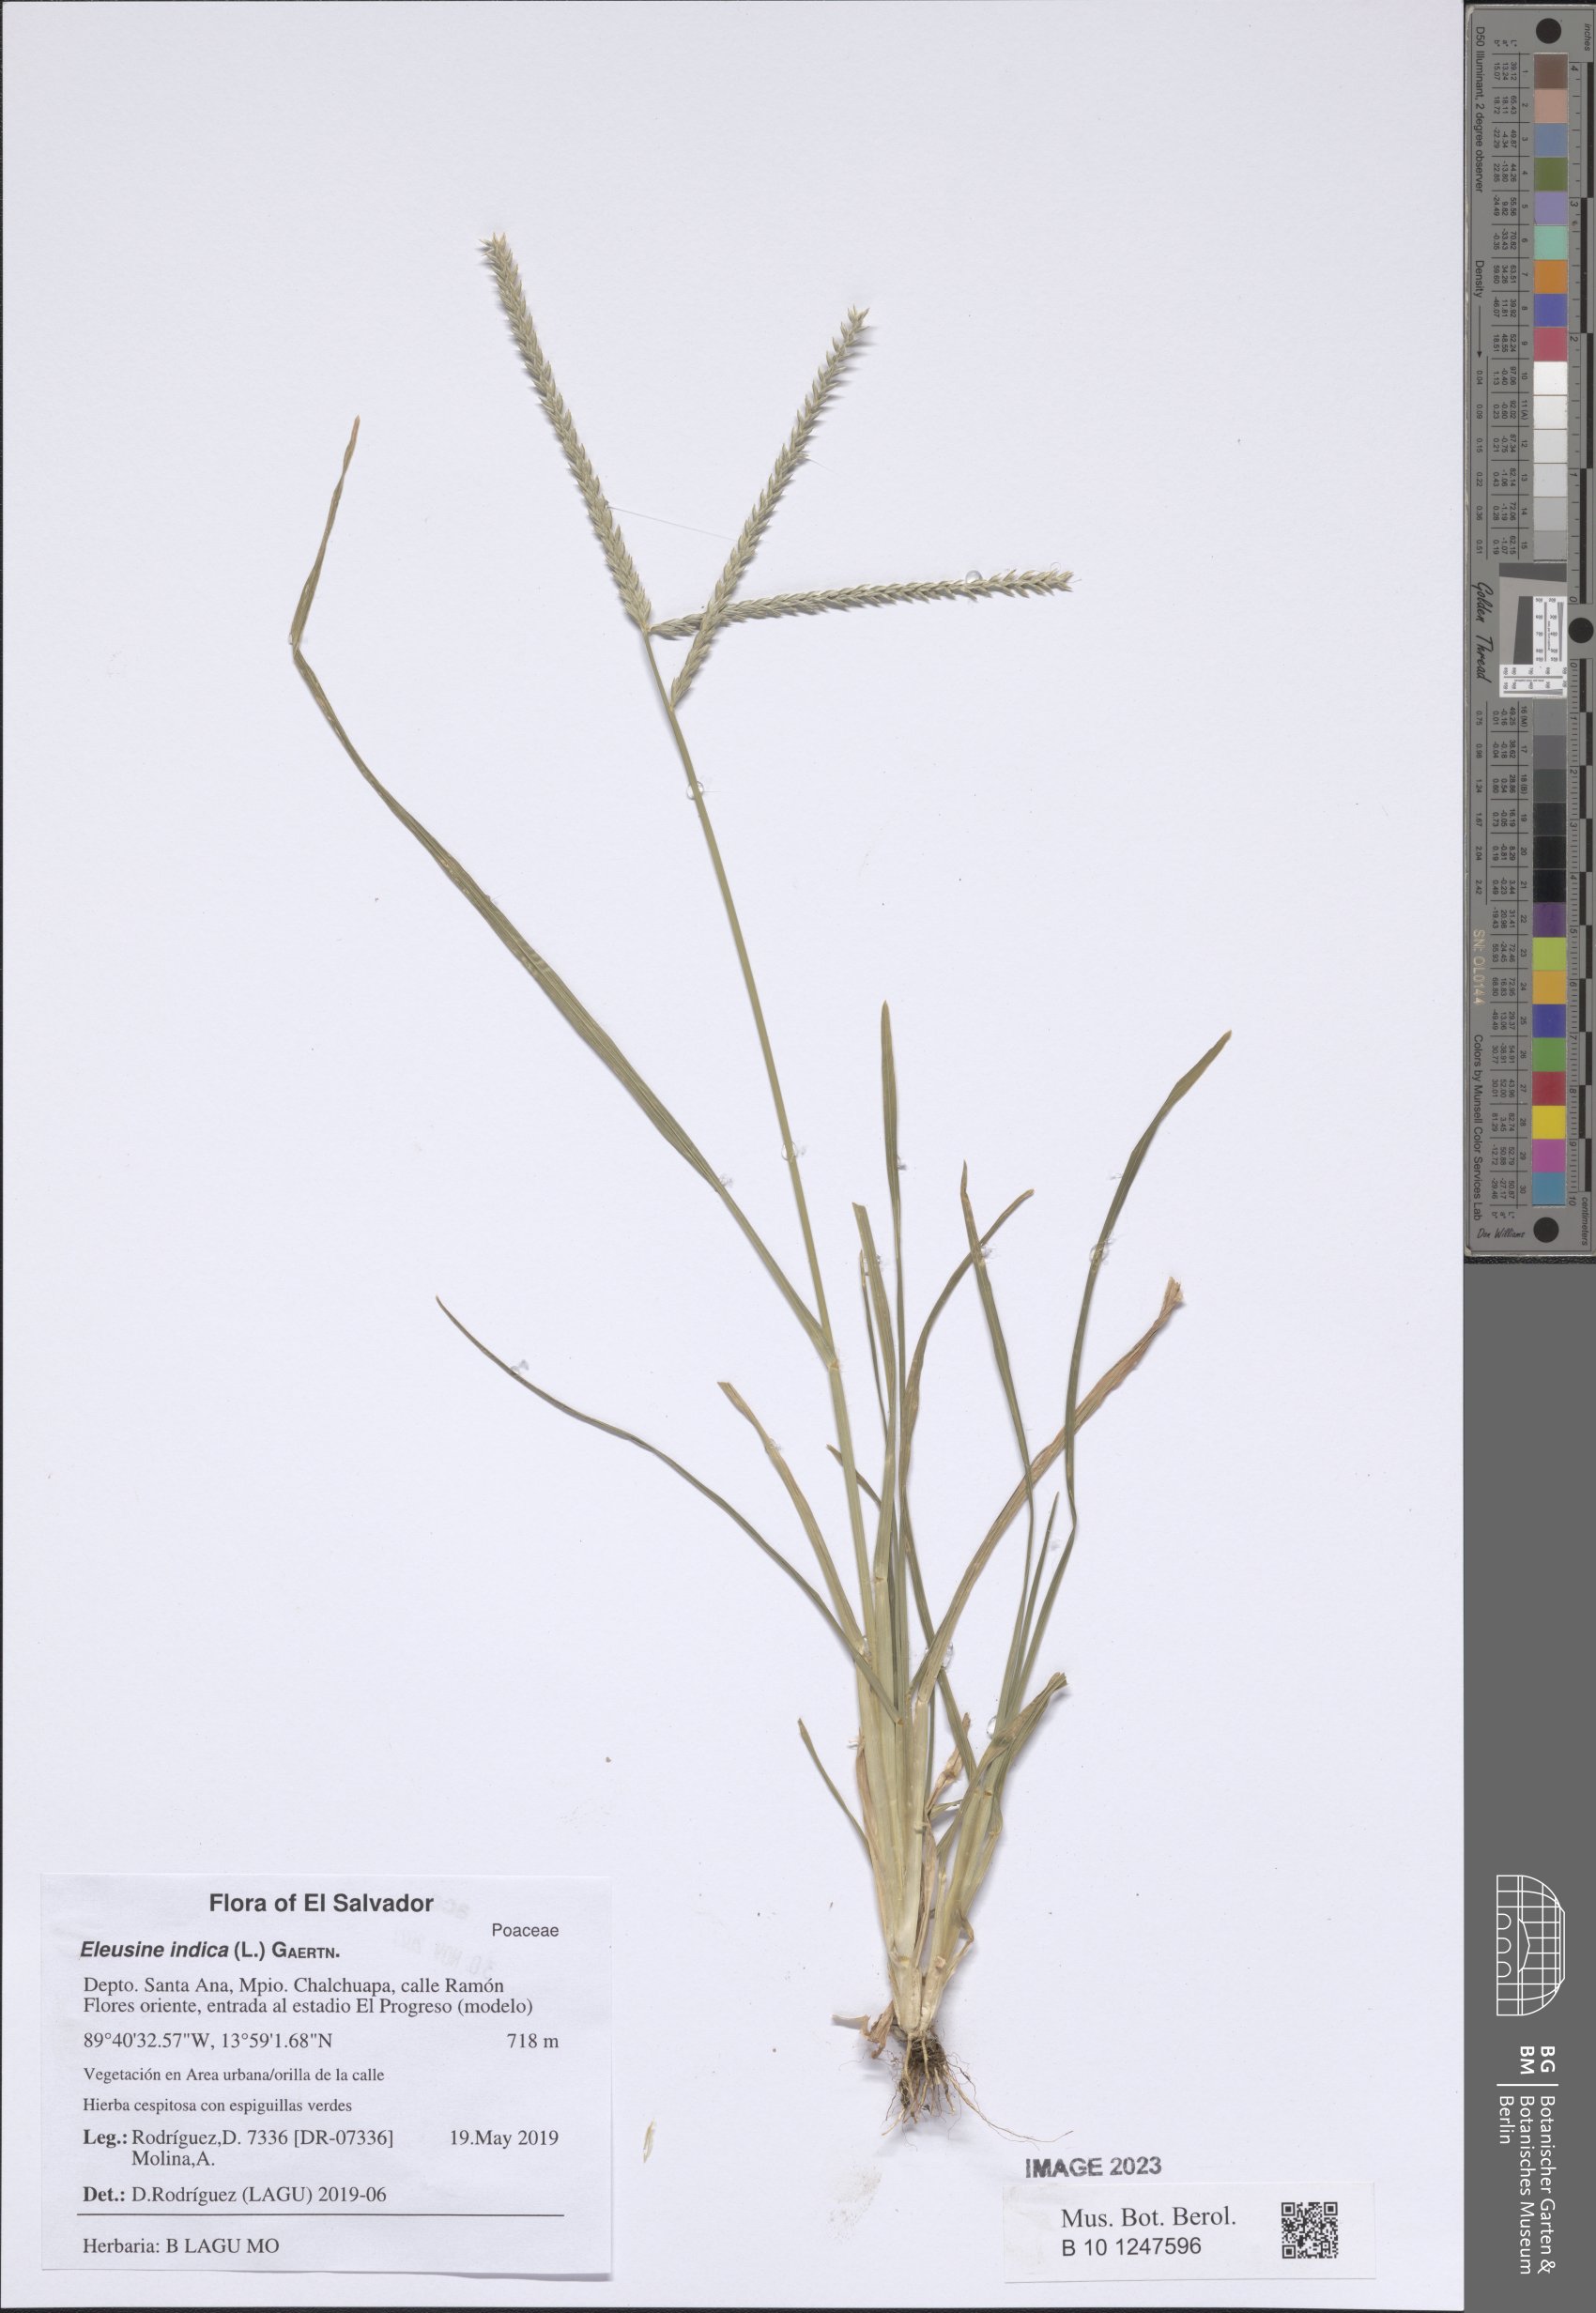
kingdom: Plantae
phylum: Tracheophyta
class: Liliopsida
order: Poales
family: Poaceae
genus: Eleusine
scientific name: Eleusine indica
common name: Yard-grass
